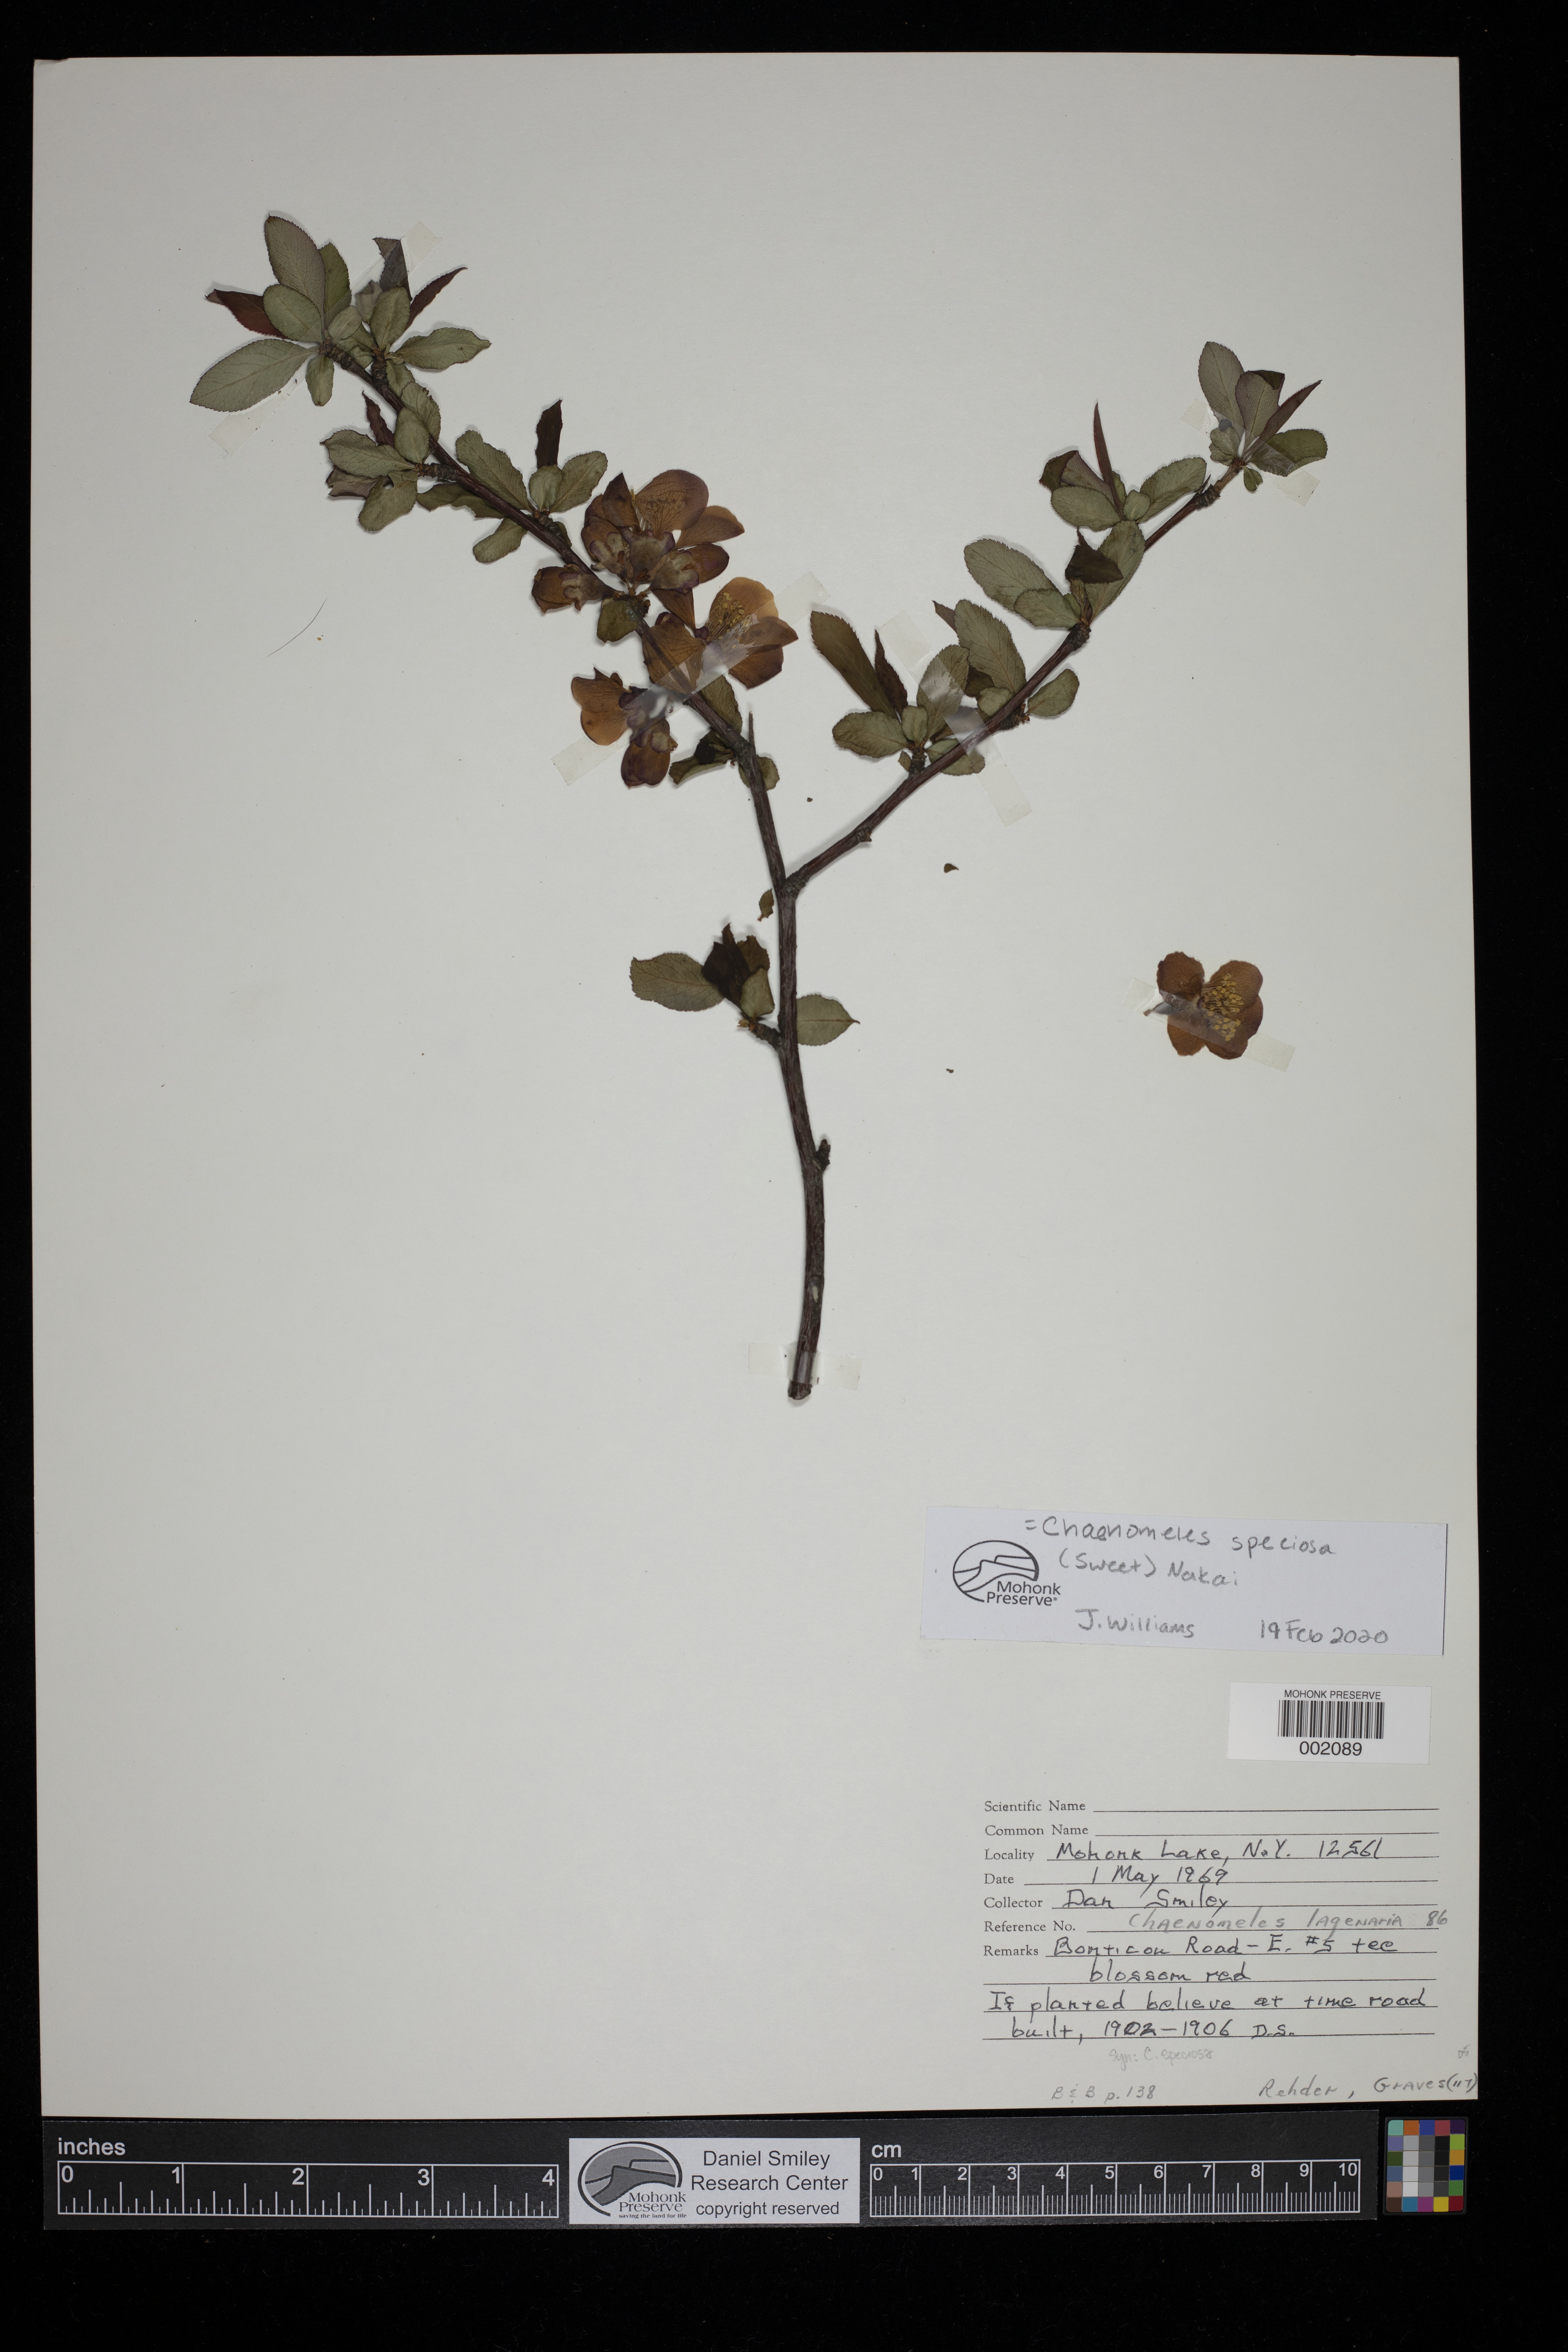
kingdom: Plantae
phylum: Tracheophyta
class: Magnoliopsida
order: Rosales
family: Rosaceae
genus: Chaenomeles
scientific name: Chaenomeles speciosa
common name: Japanese quince
